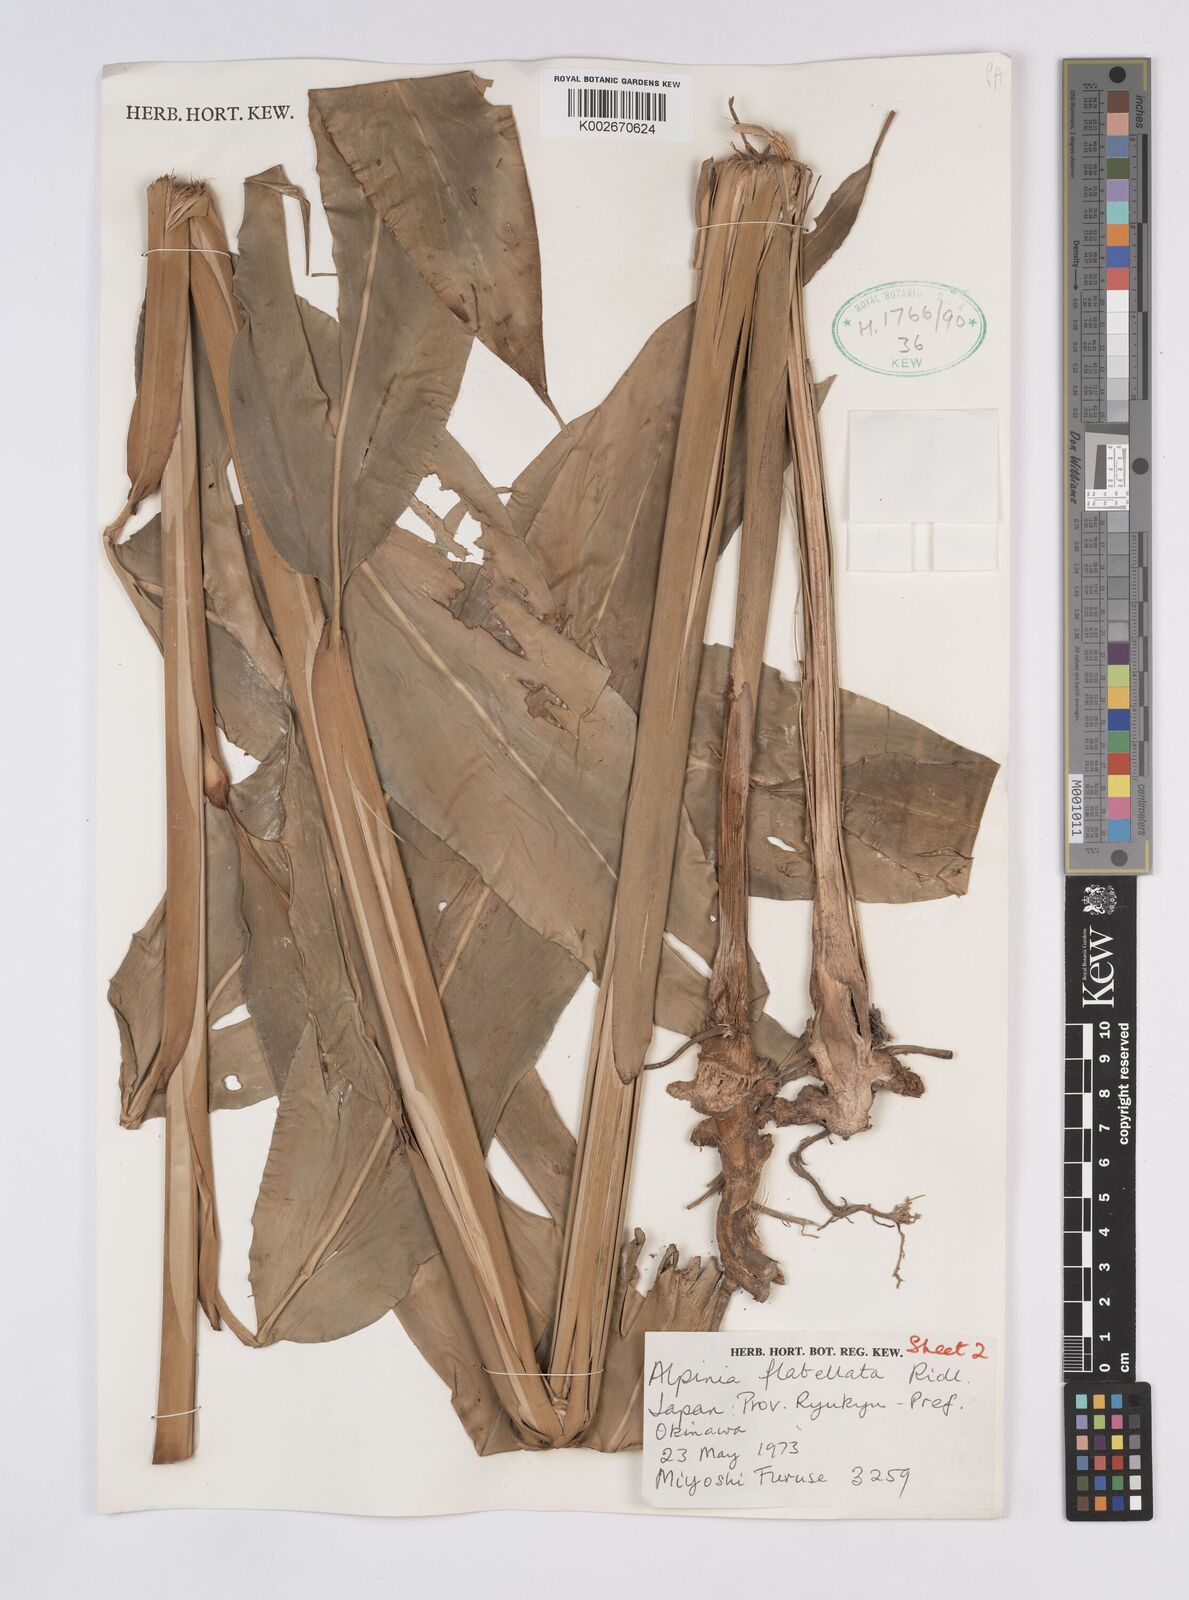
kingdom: Plantae
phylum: Tracheophyta
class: Liliopsida
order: Zingiberales
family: Zingiberaceae
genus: Alpinia
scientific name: Alpinia flabellata
